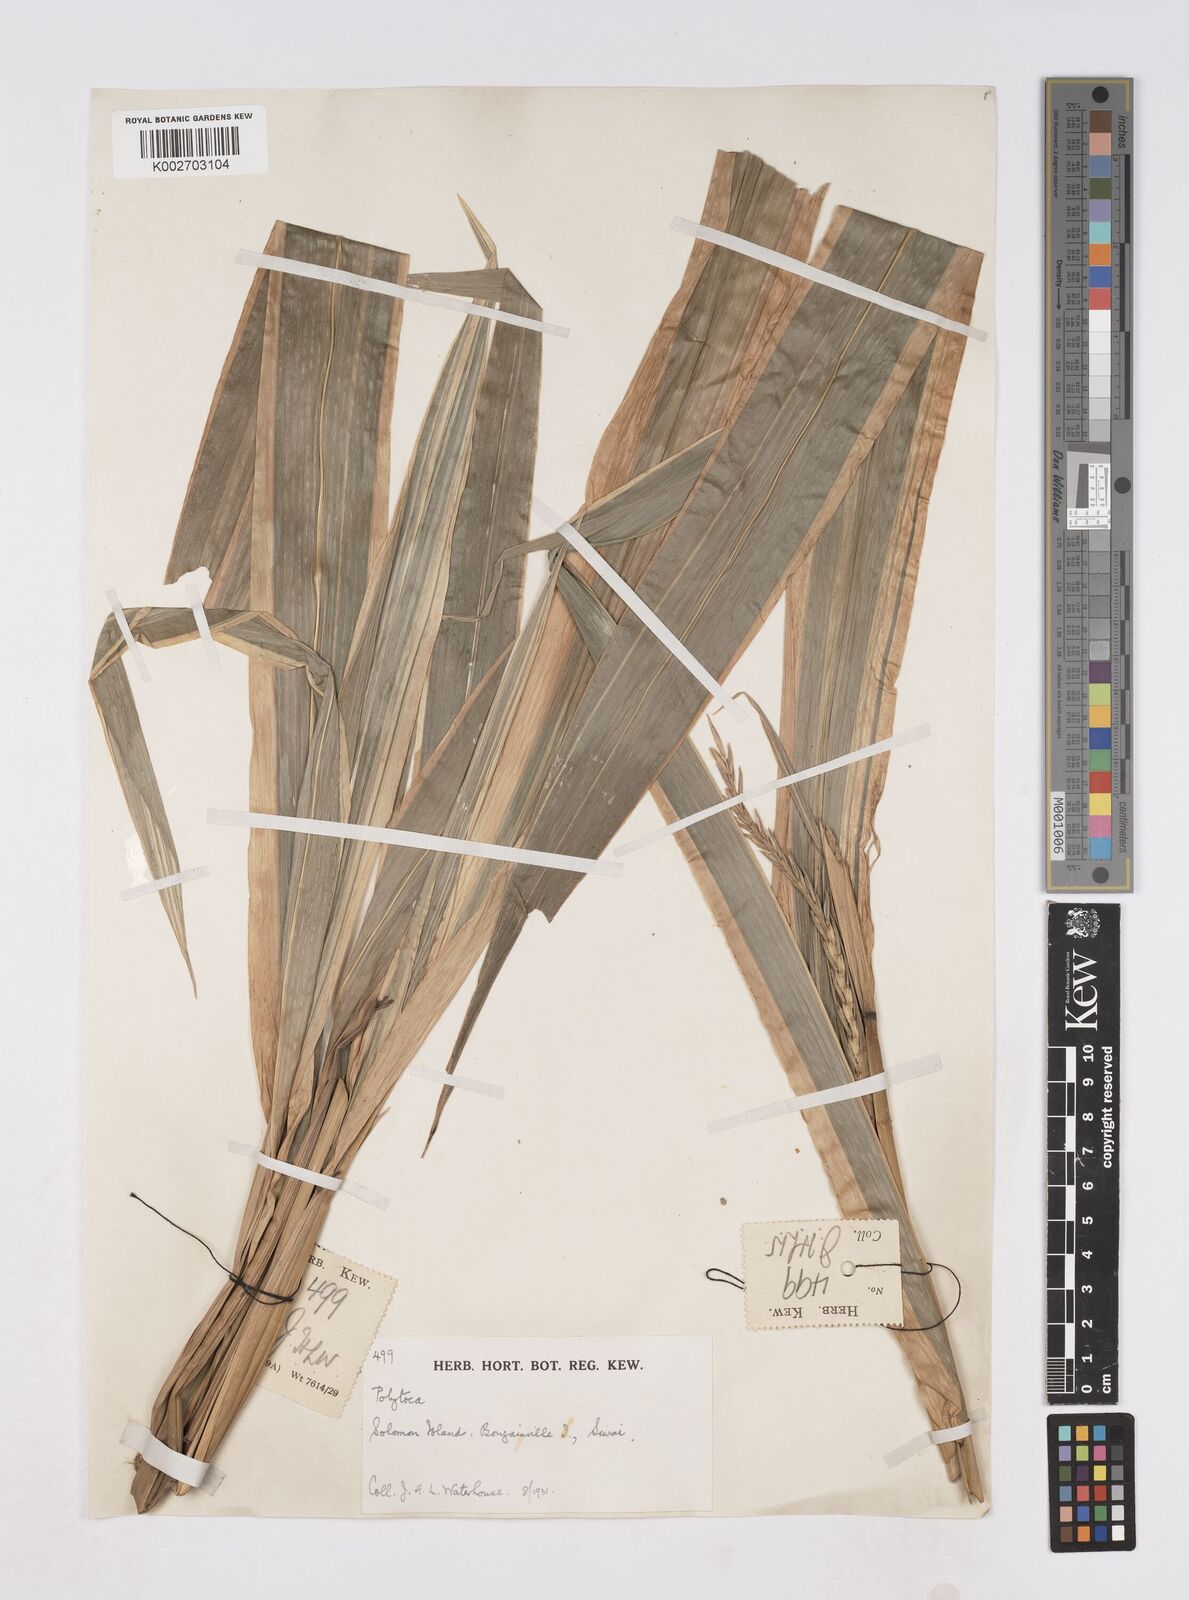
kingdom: Plantae
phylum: Tracheophyta
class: Liliopsida
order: Poales
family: Poaceae
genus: Polytoca
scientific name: Polytoca macrophylla
